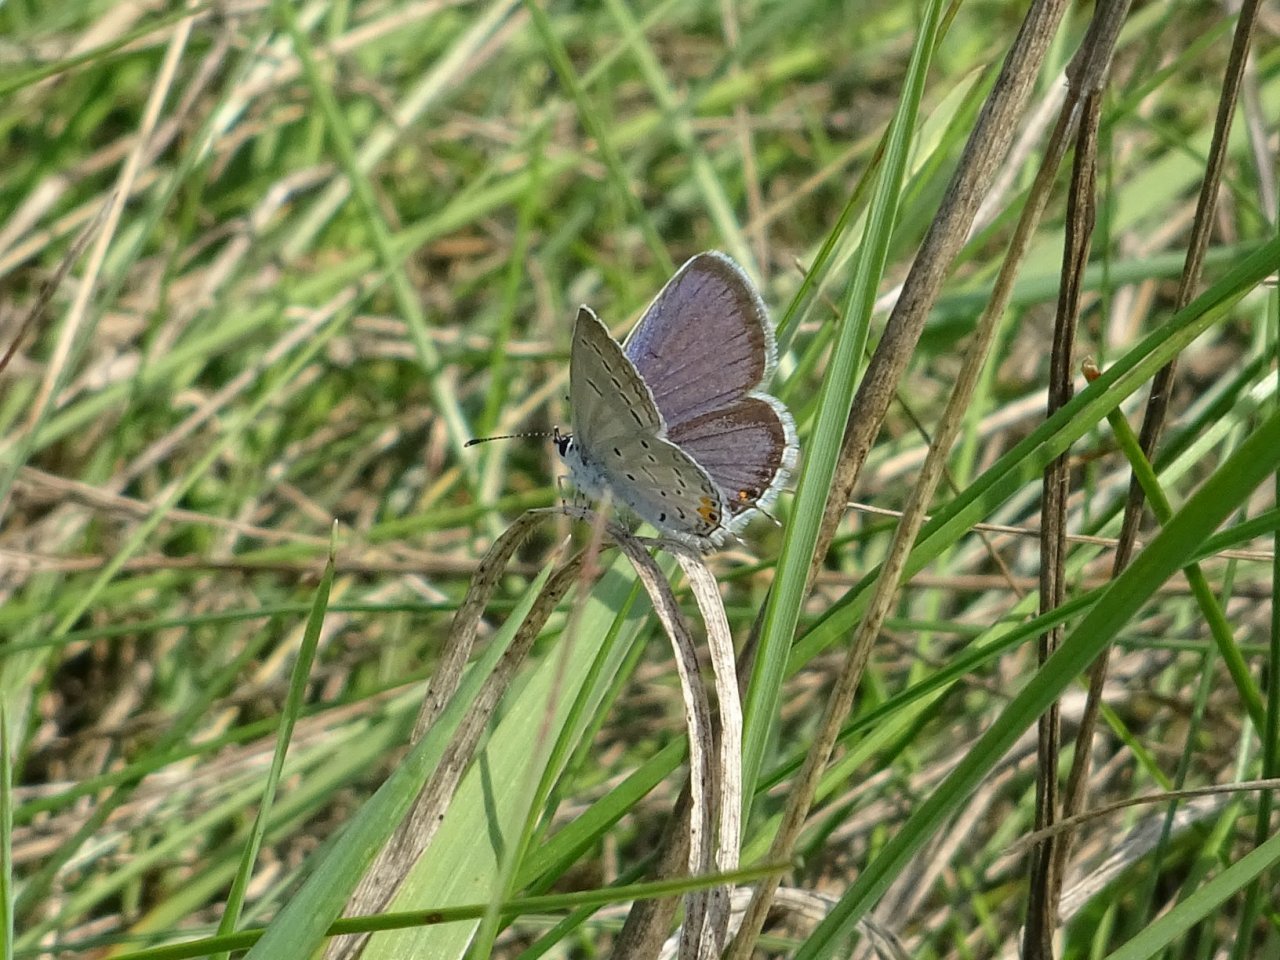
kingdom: Animalia
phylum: Arthropoda
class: Insecta
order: Lepidoptera
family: Lycaenidae
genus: Elkalyce
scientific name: Elkalyce comyntas
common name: Eastern Tailed-Blue
